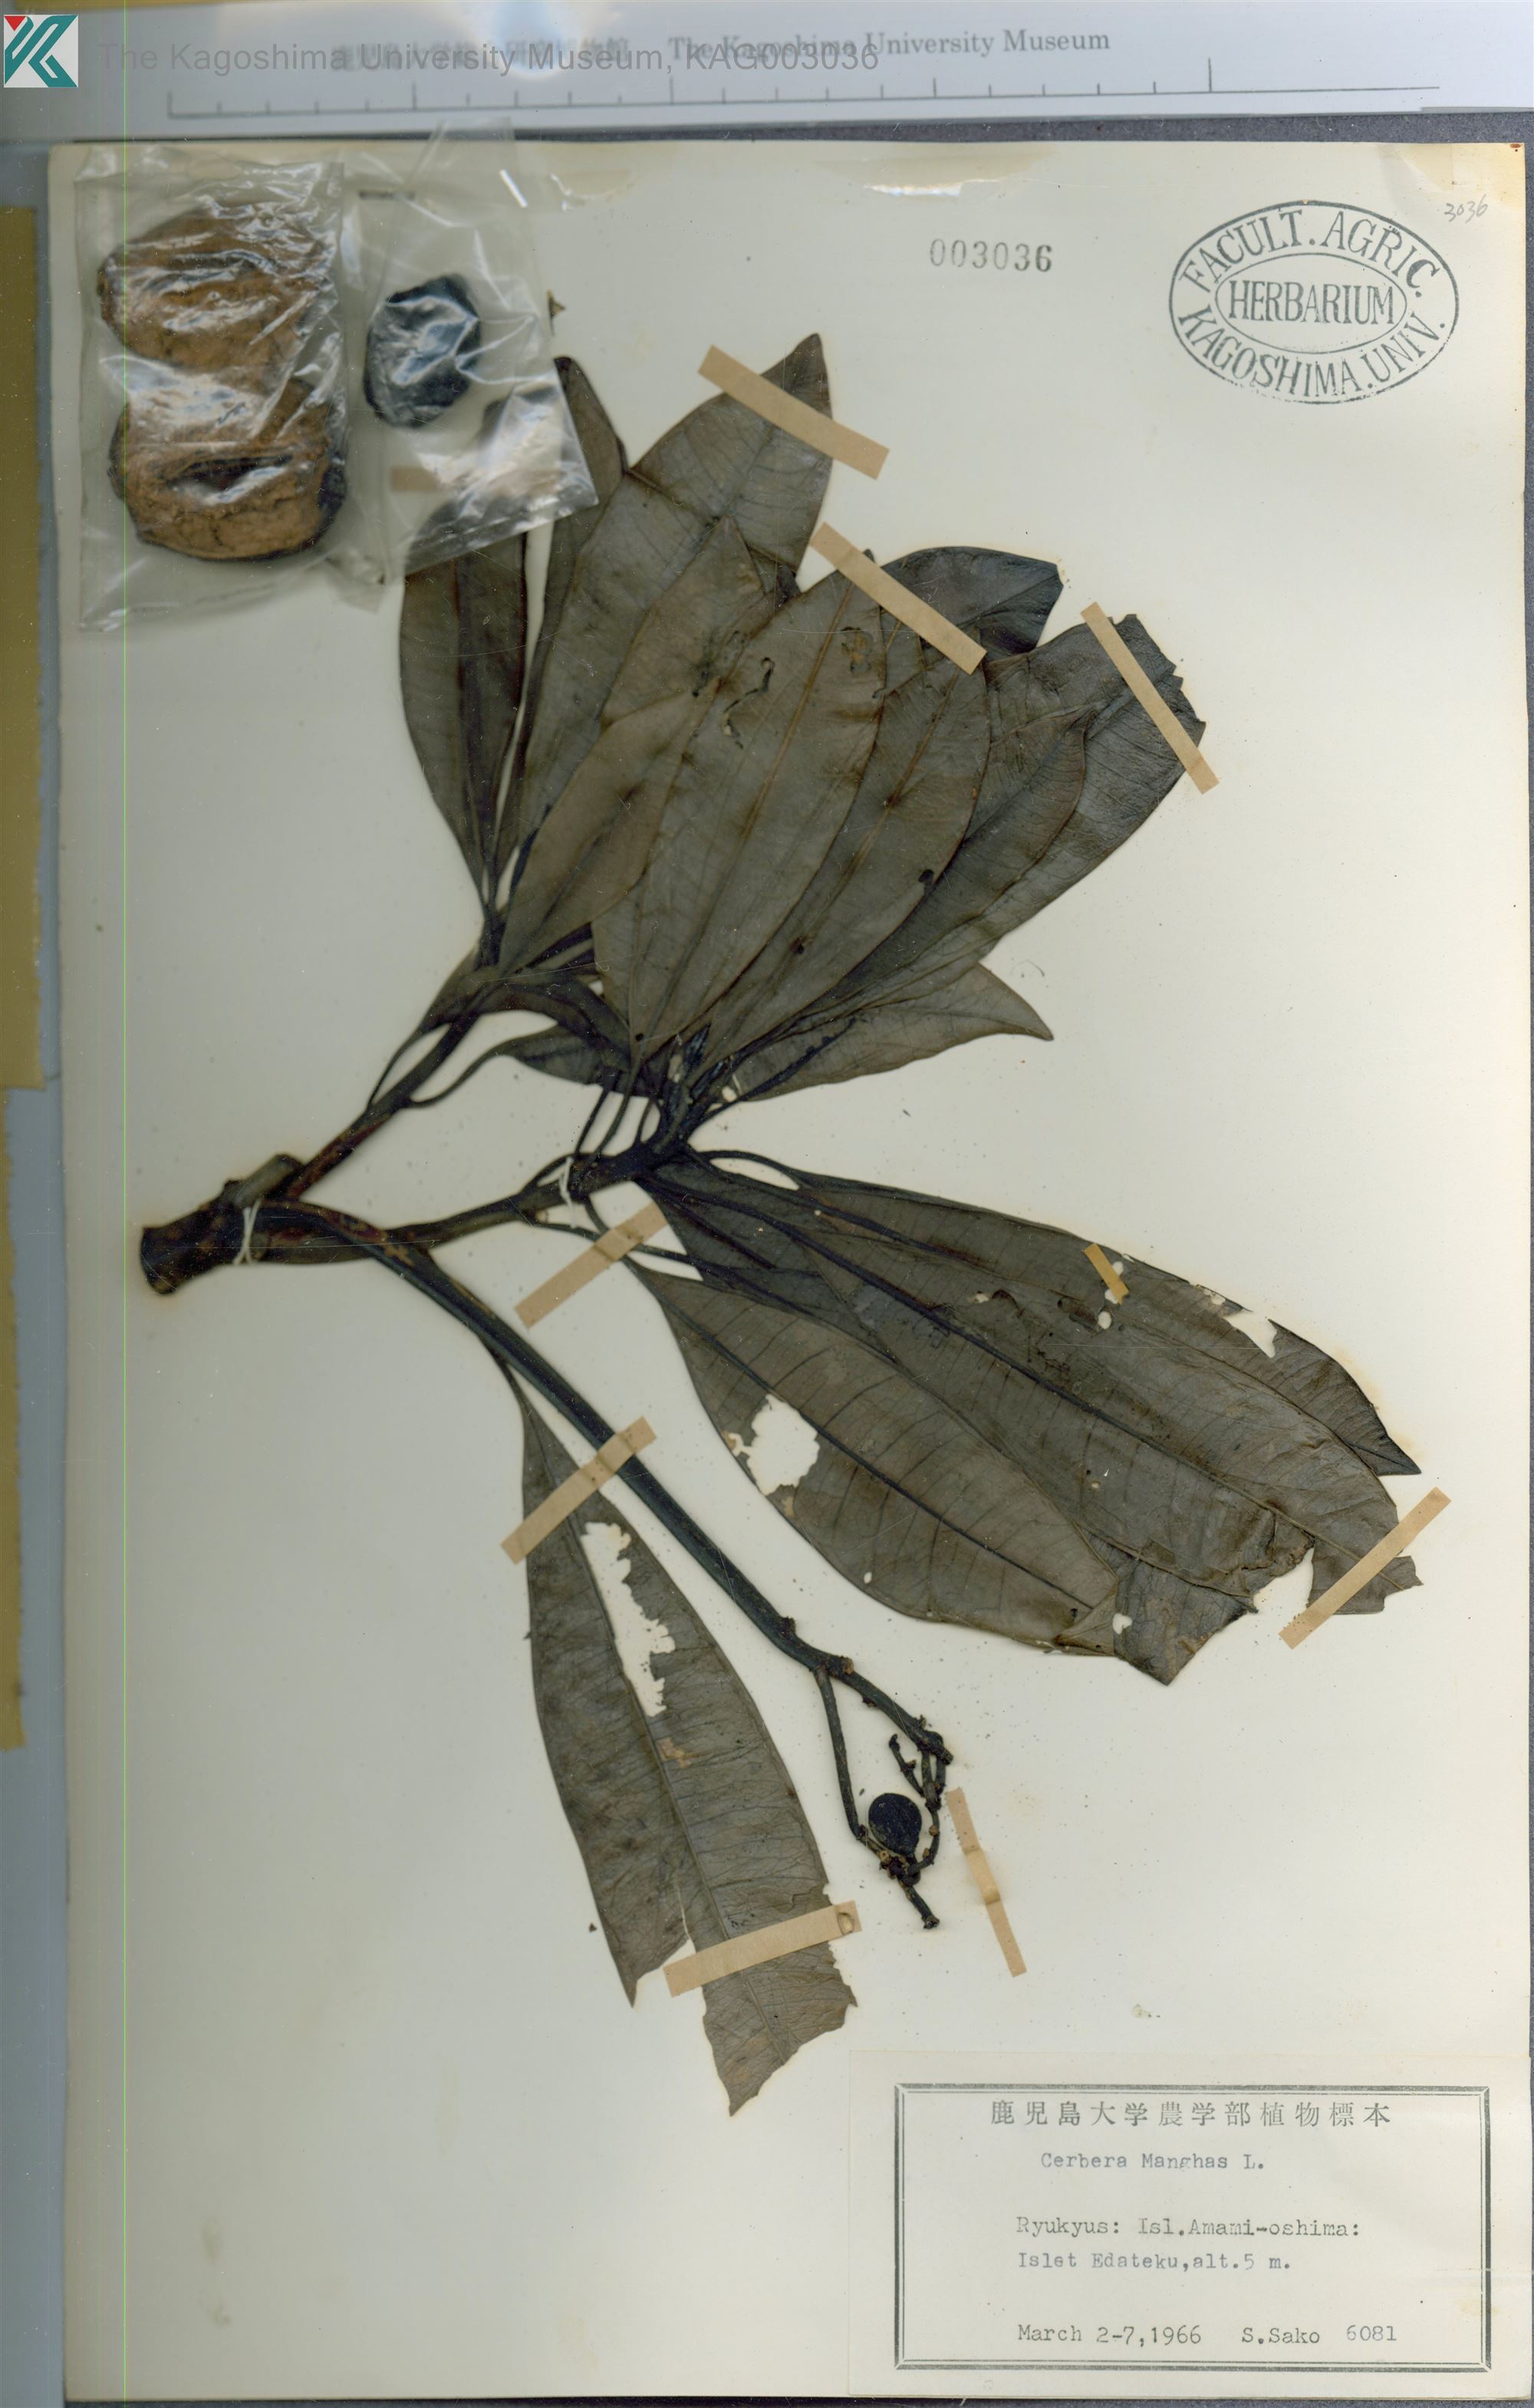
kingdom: Plantae
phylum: Tracheophyta
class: Magnoliopsida
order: Gentianales
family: Apocynaceae
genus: Cerbera
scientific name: Cerbera manghas
